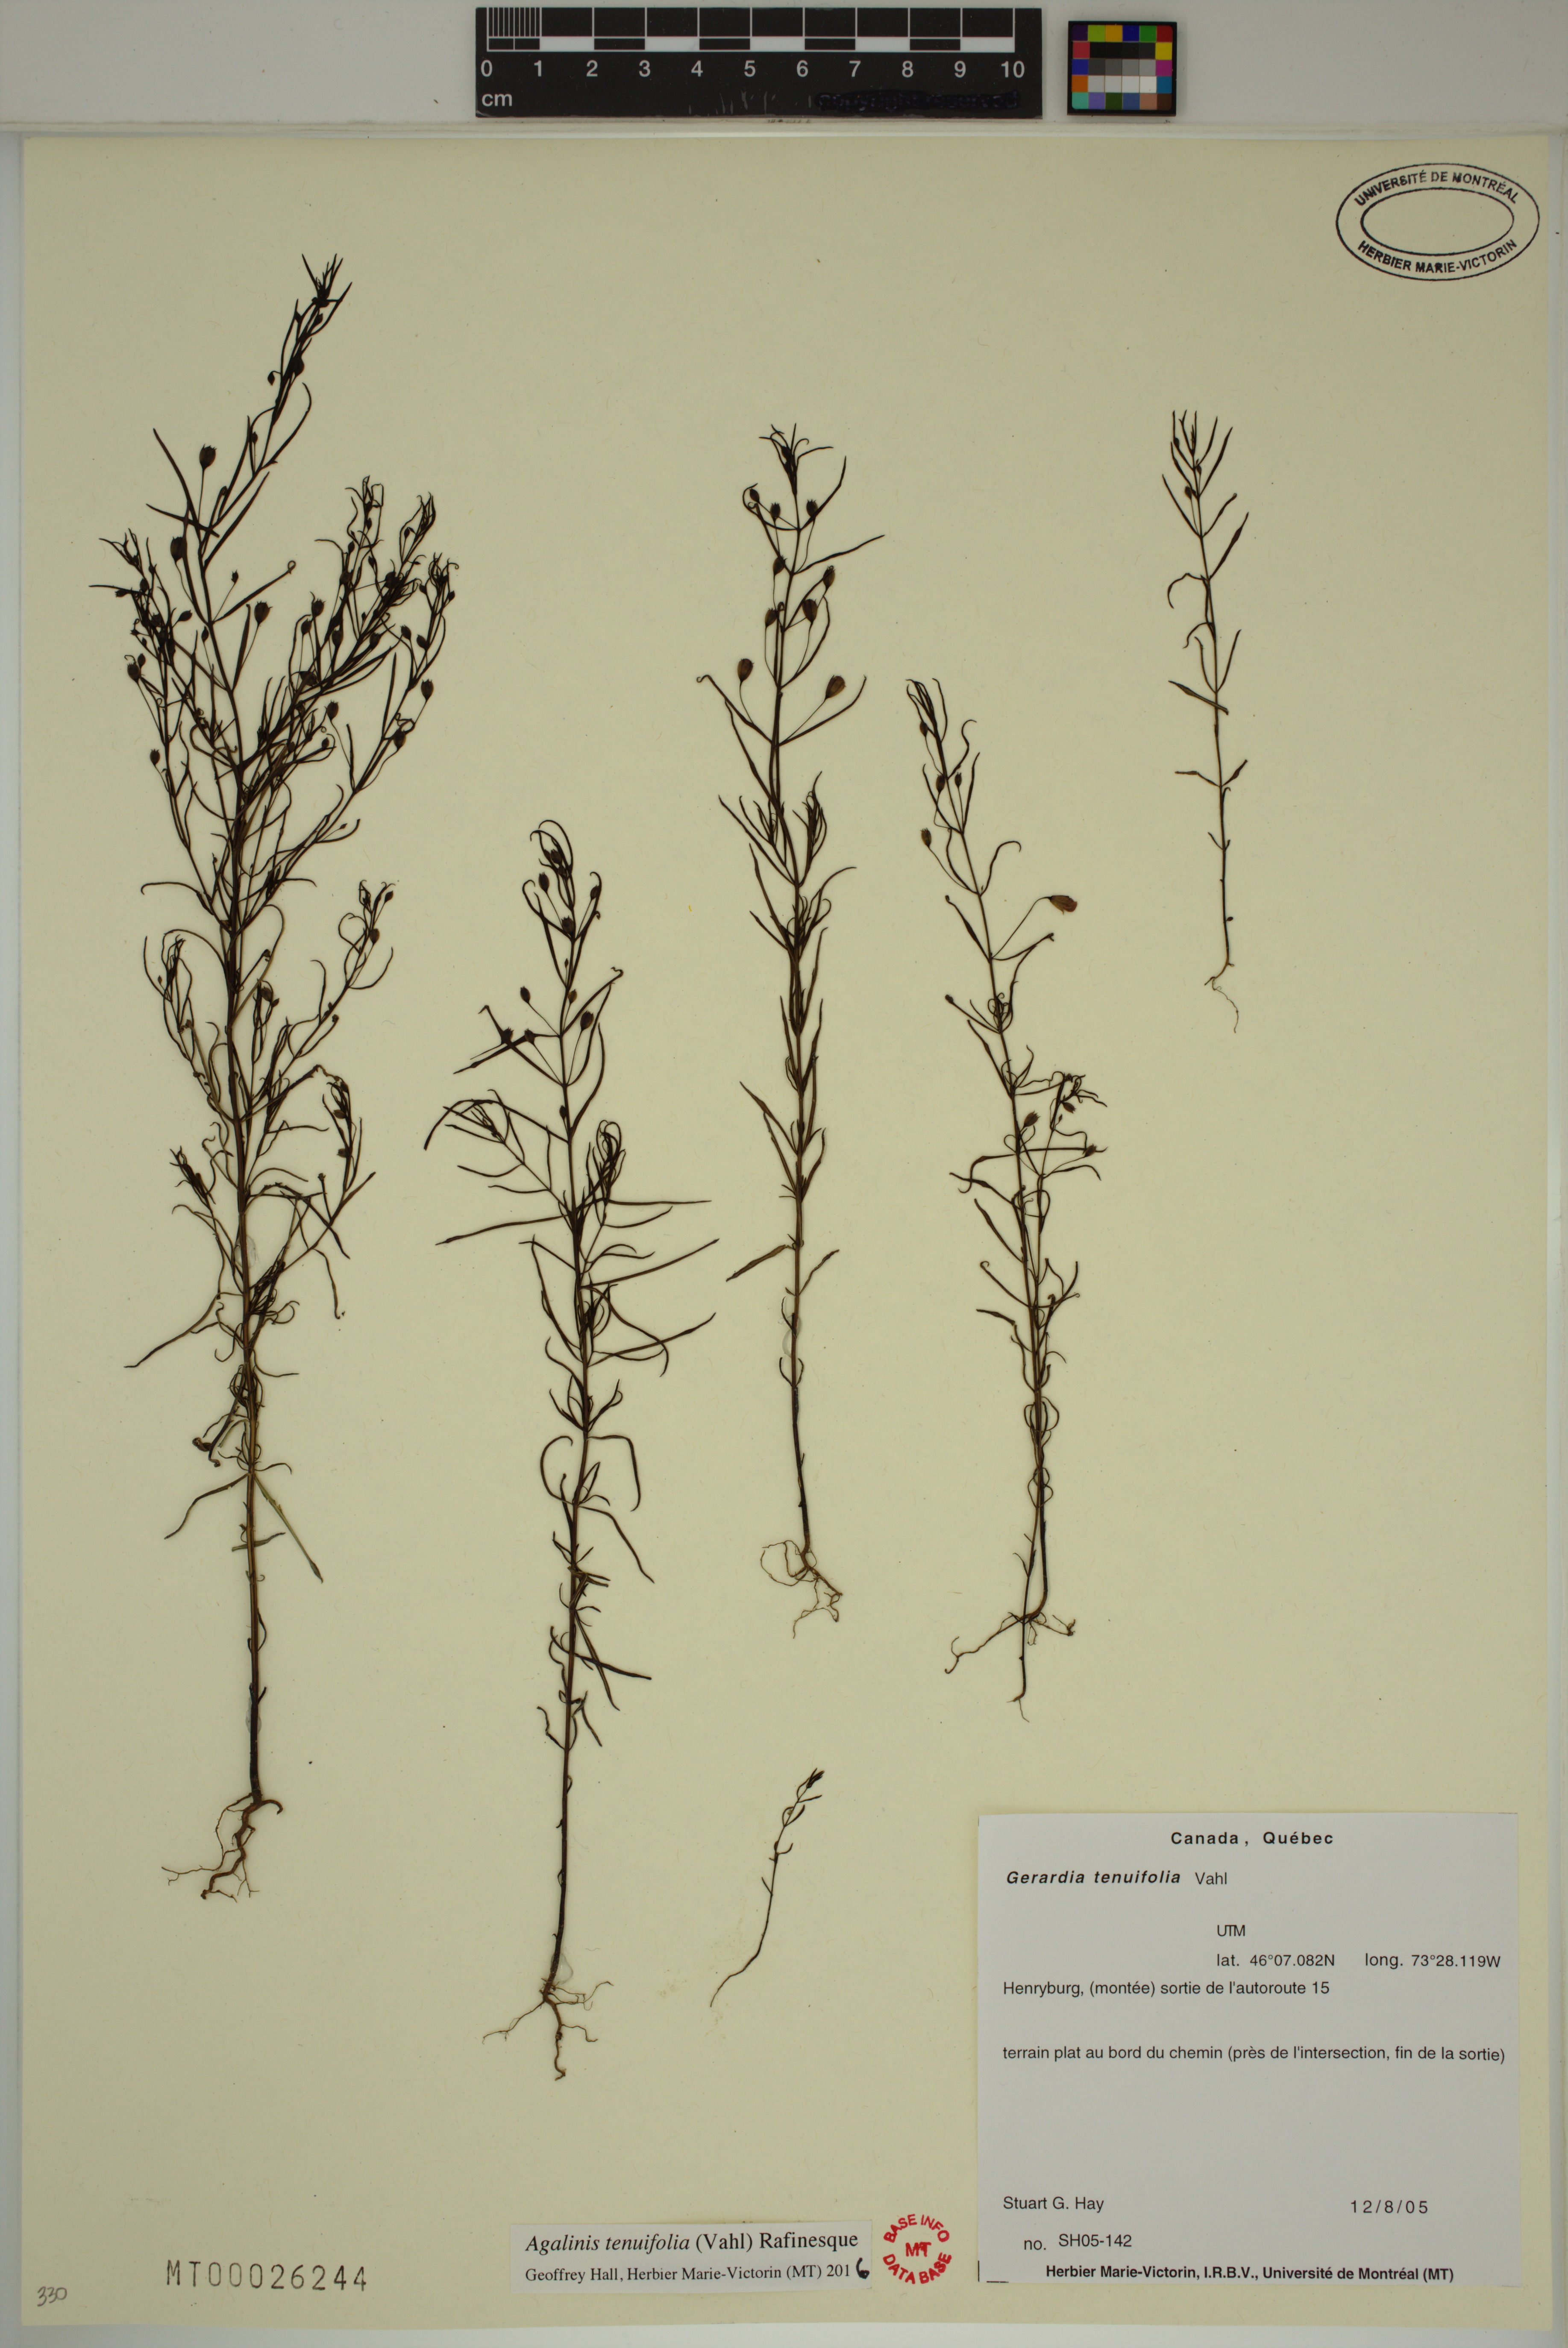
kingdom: Plantae
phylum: Tracheophyta
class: Magnoliopsida
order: Lamiales
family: Orobanchaceae
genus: Agalinis
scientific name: Agalinis tenuifolia
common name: Slender agalinis
